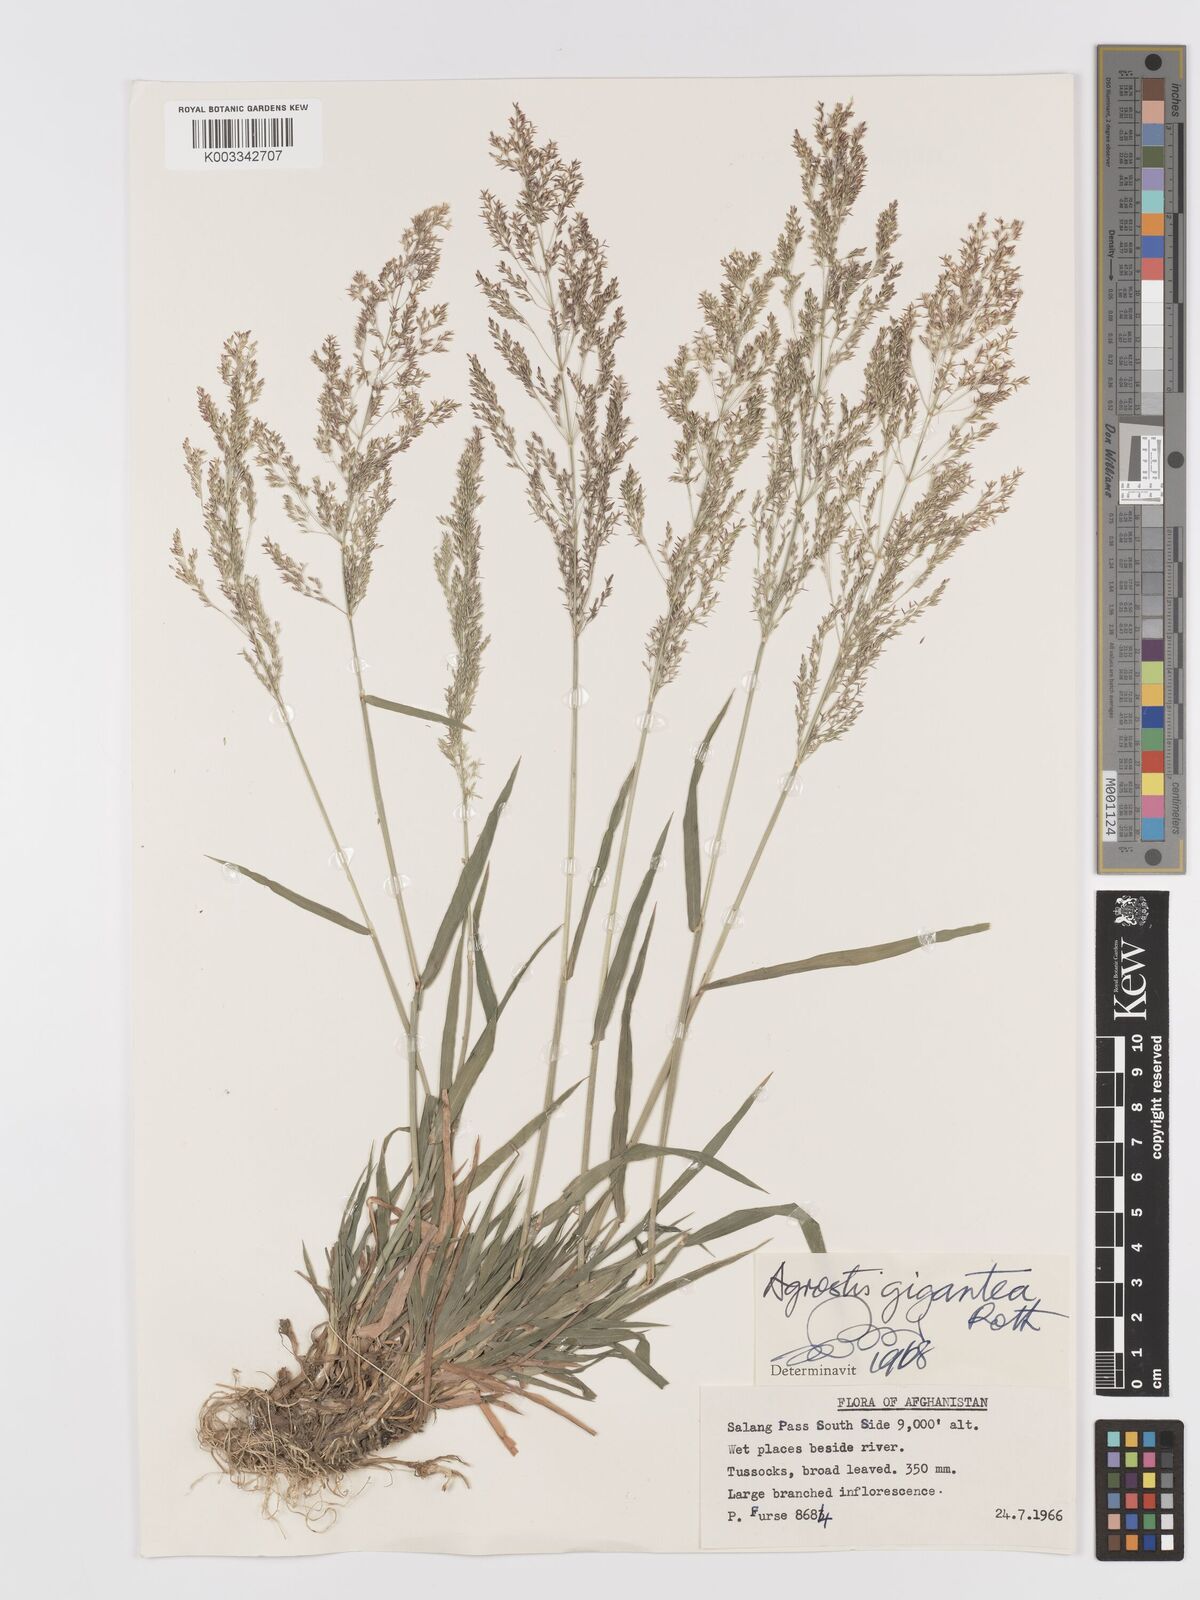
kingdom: Plantae
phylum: Tracheophyta
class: Liliopsida
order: Poales
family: Poaceae
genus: Agrostis
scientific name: Agrostis gigantea
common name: Black bent
